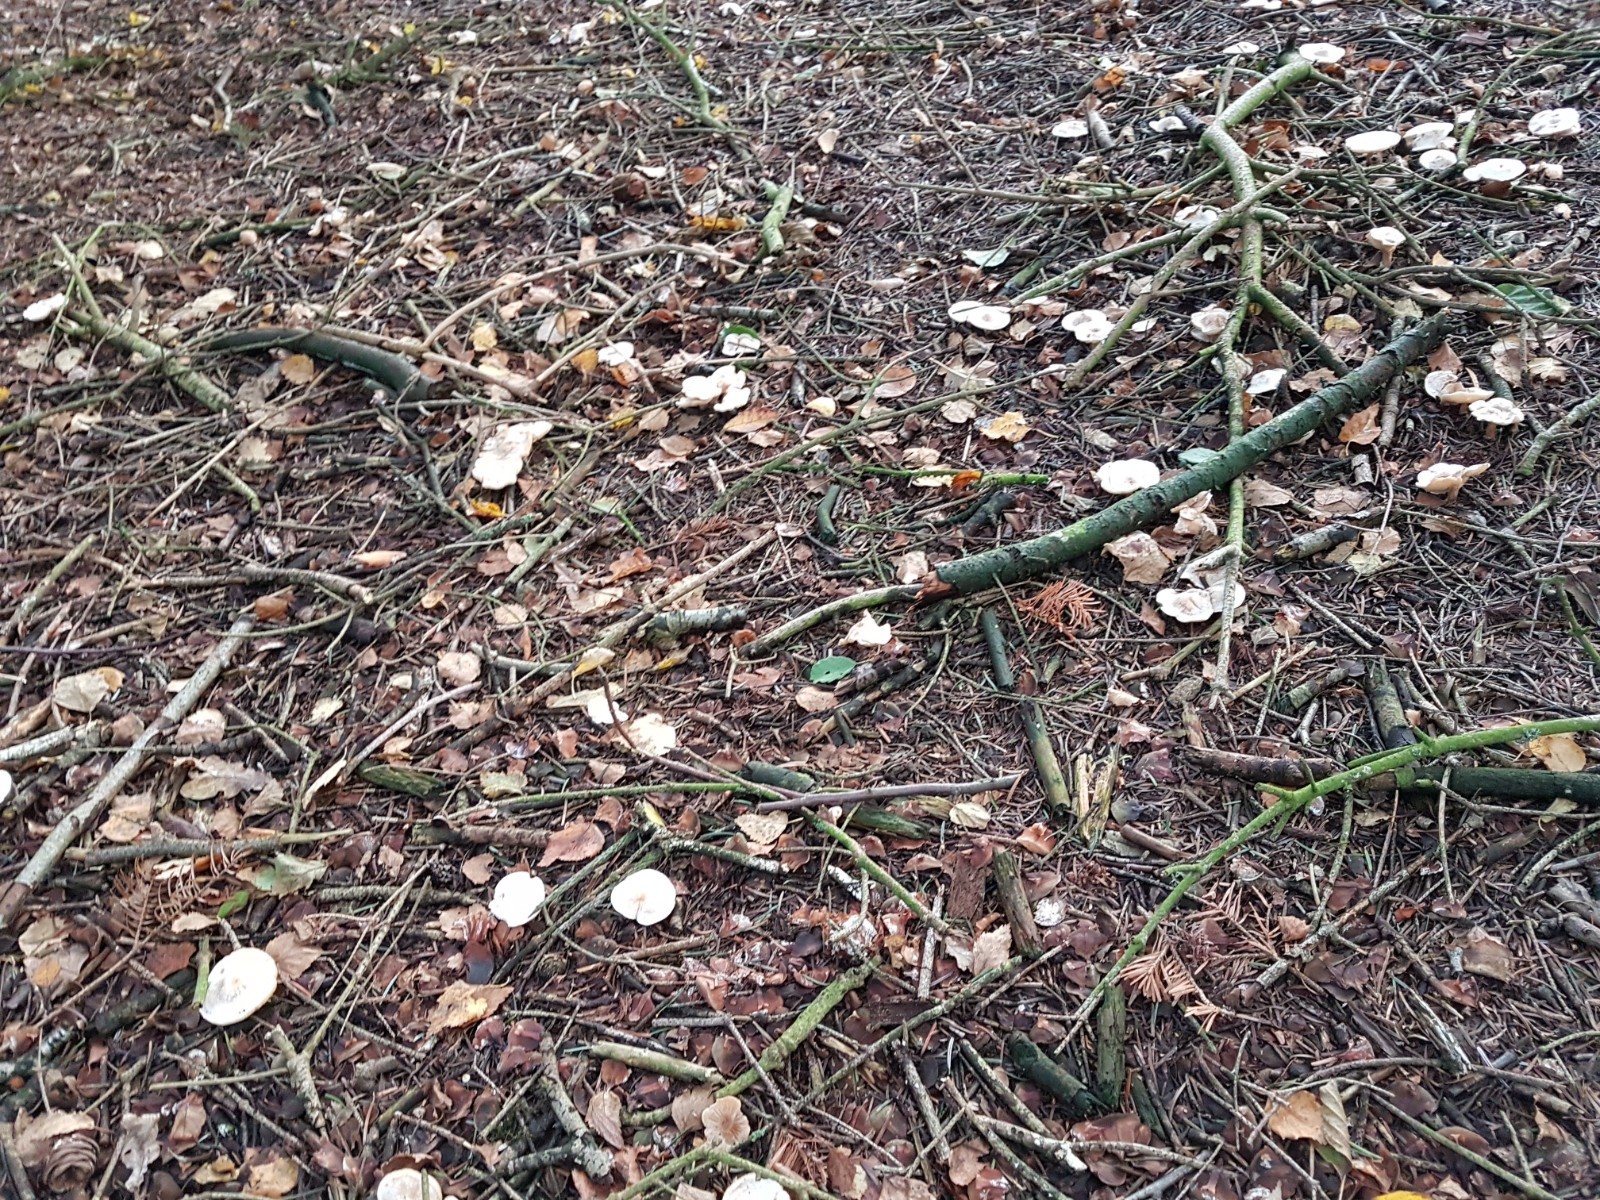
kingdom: Fungi
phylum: Basidiomycota
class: Agaricomycetes
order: Agaricales
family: Tricholomataceae
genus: Clitocybe
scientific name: Clitocybe
